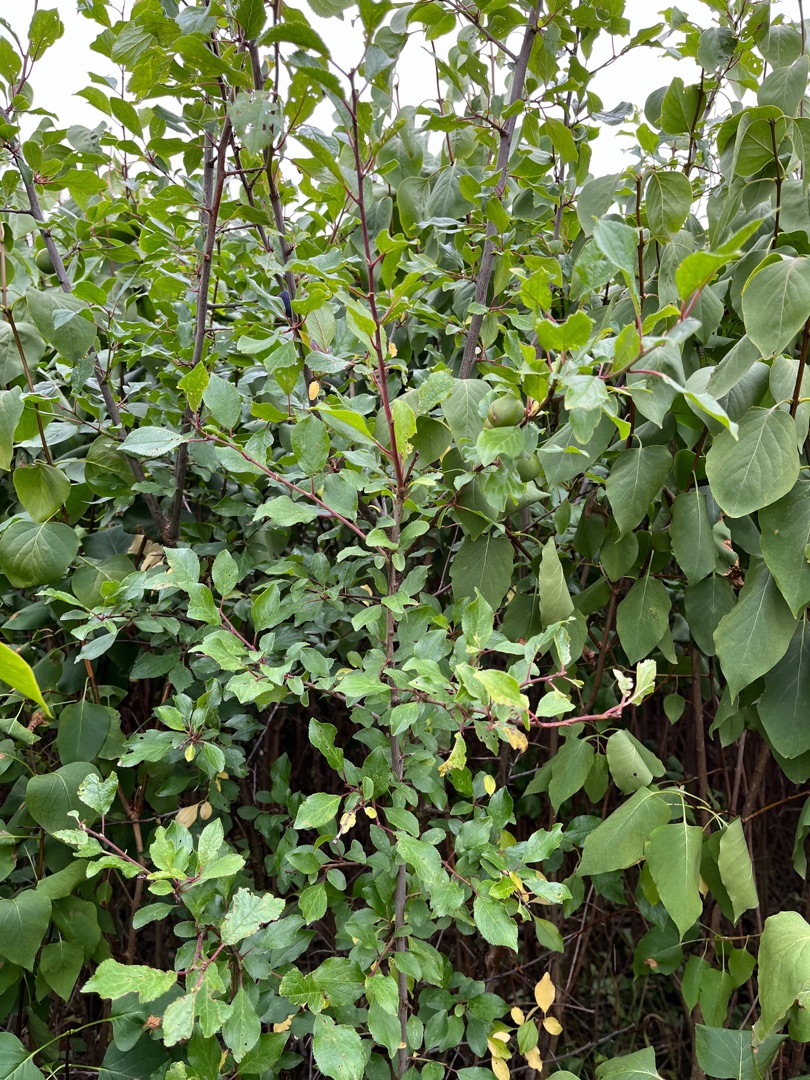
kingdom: Plantae
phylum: Tracheophyta
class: Magnoliopsida
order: Rosales
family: Rosaceae
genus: Prunus
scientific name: Prunus spinosa
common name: Slåen
